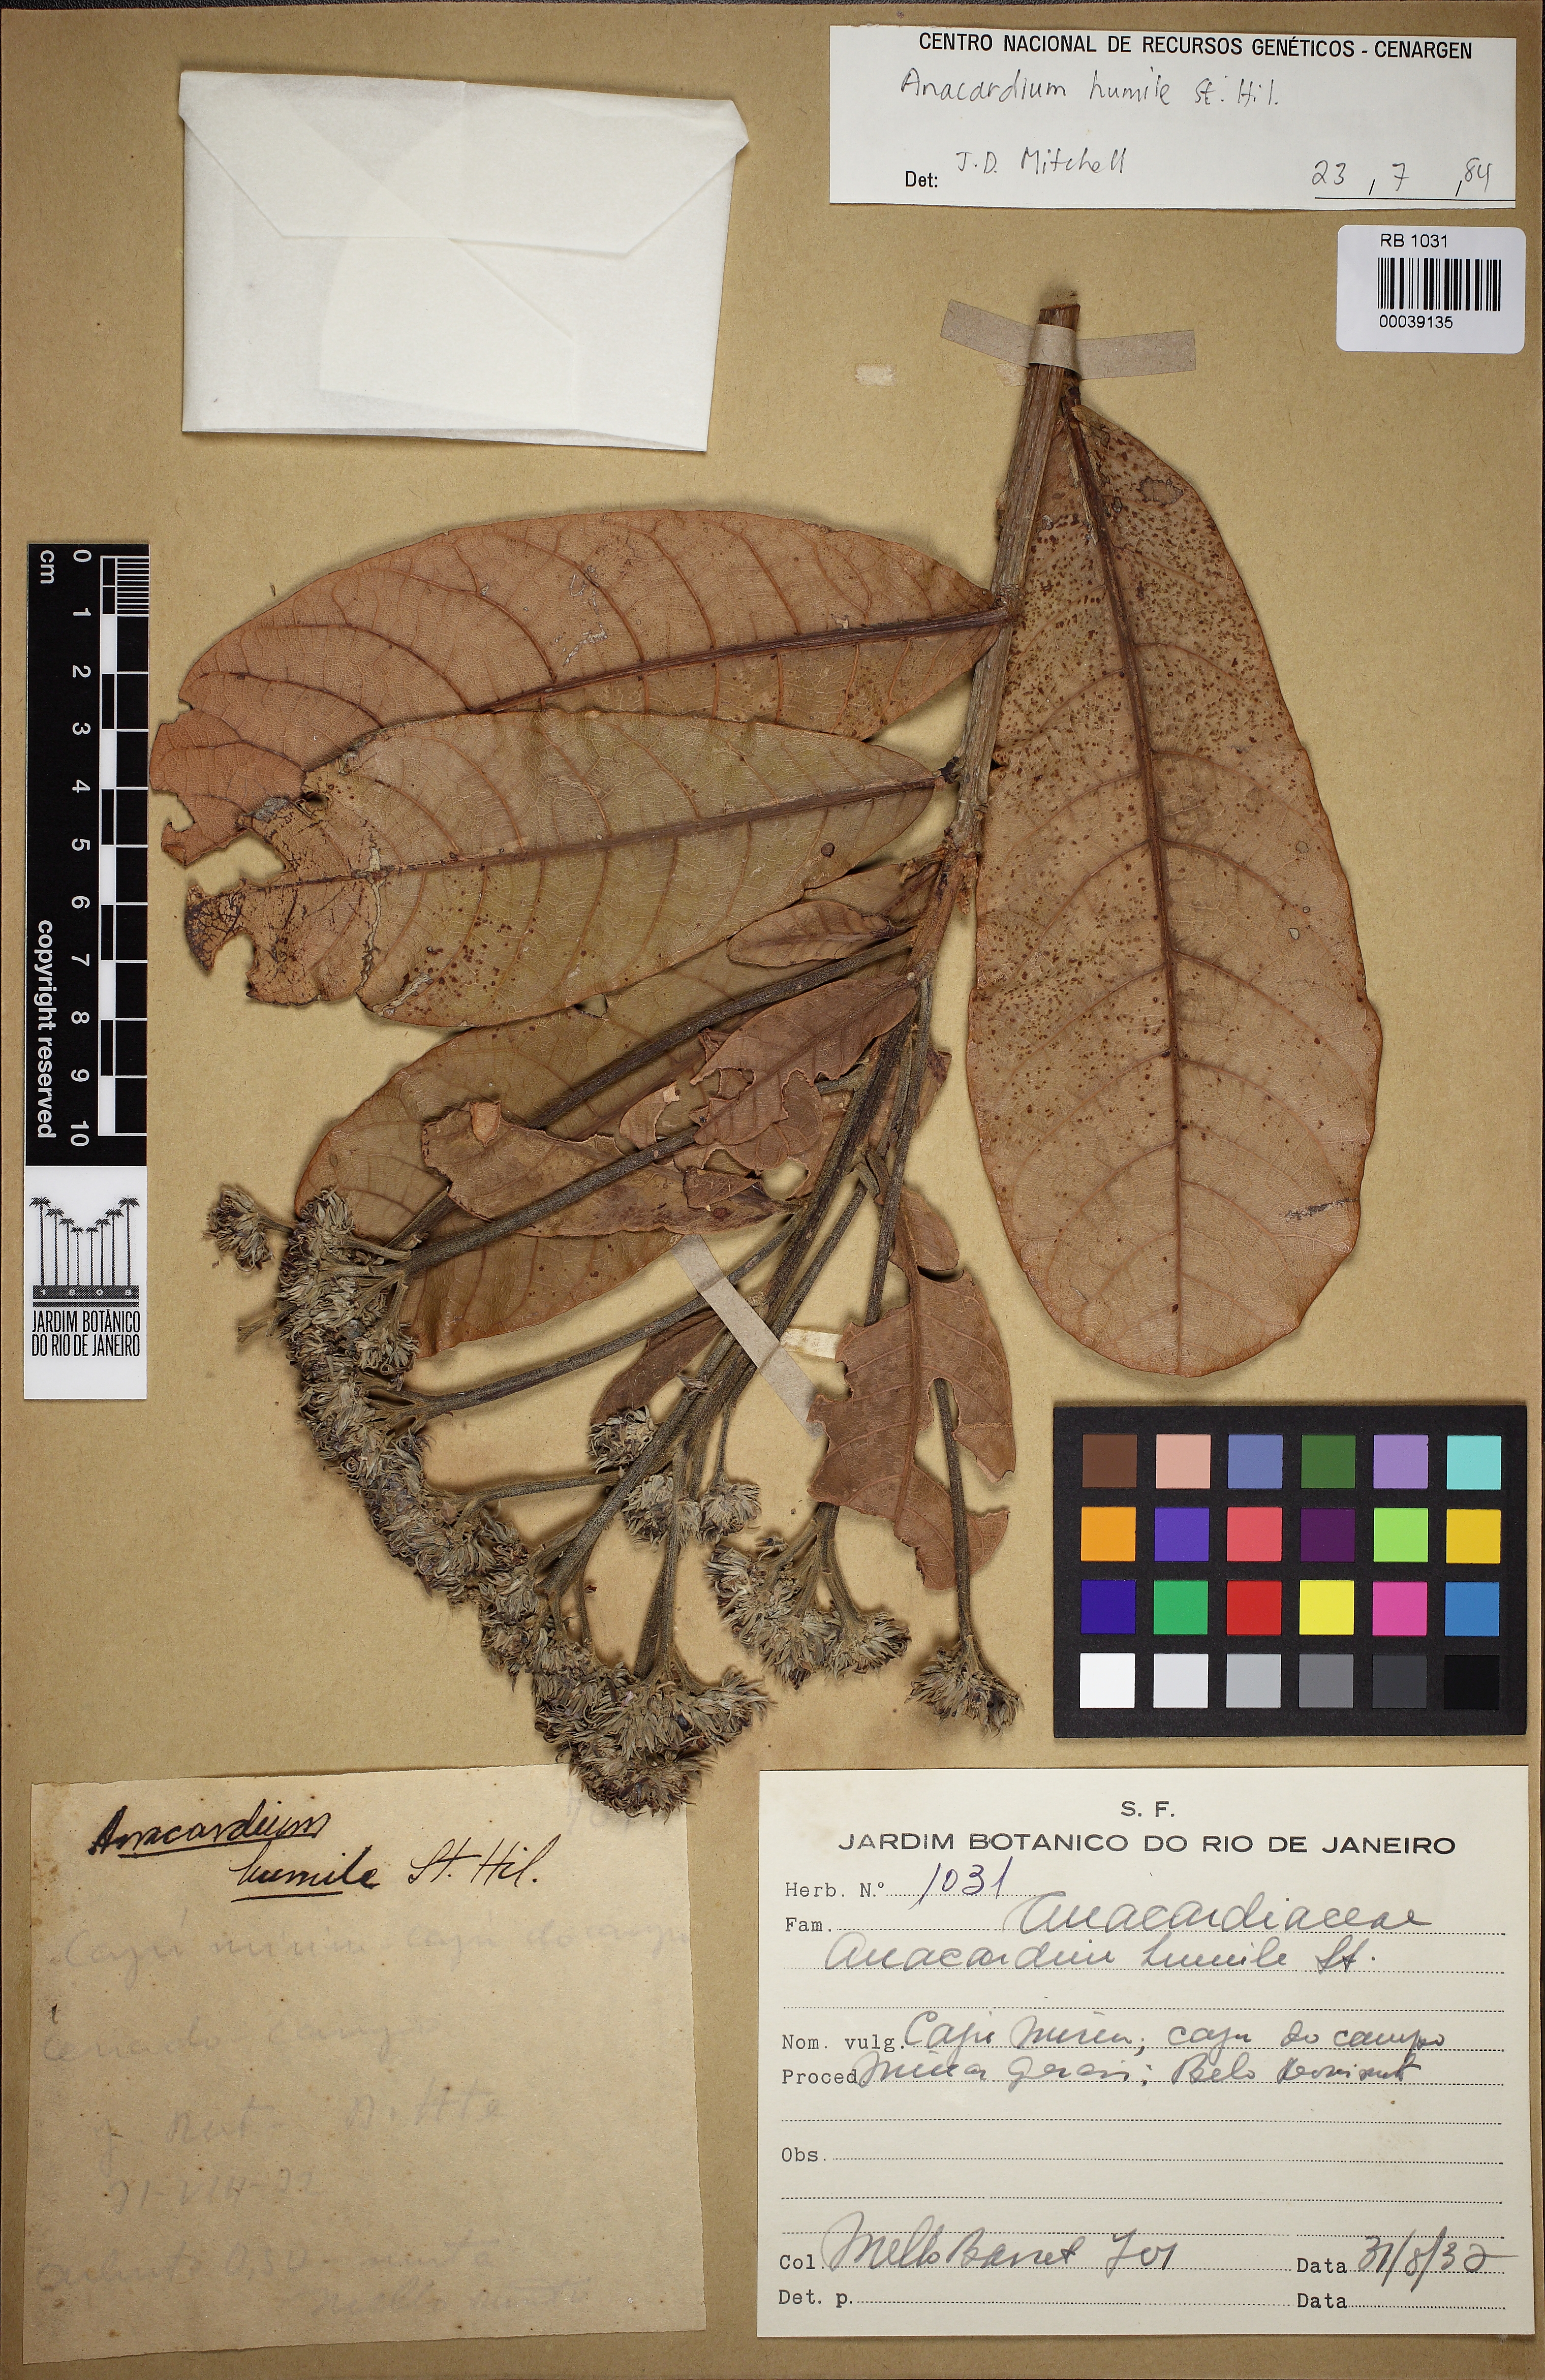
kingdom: Plantae
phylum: Tracheophyta
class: Magnoliopsida
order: Sapindales
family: Anacardiaceae
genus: Anacardium
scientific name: Anacardium humile
